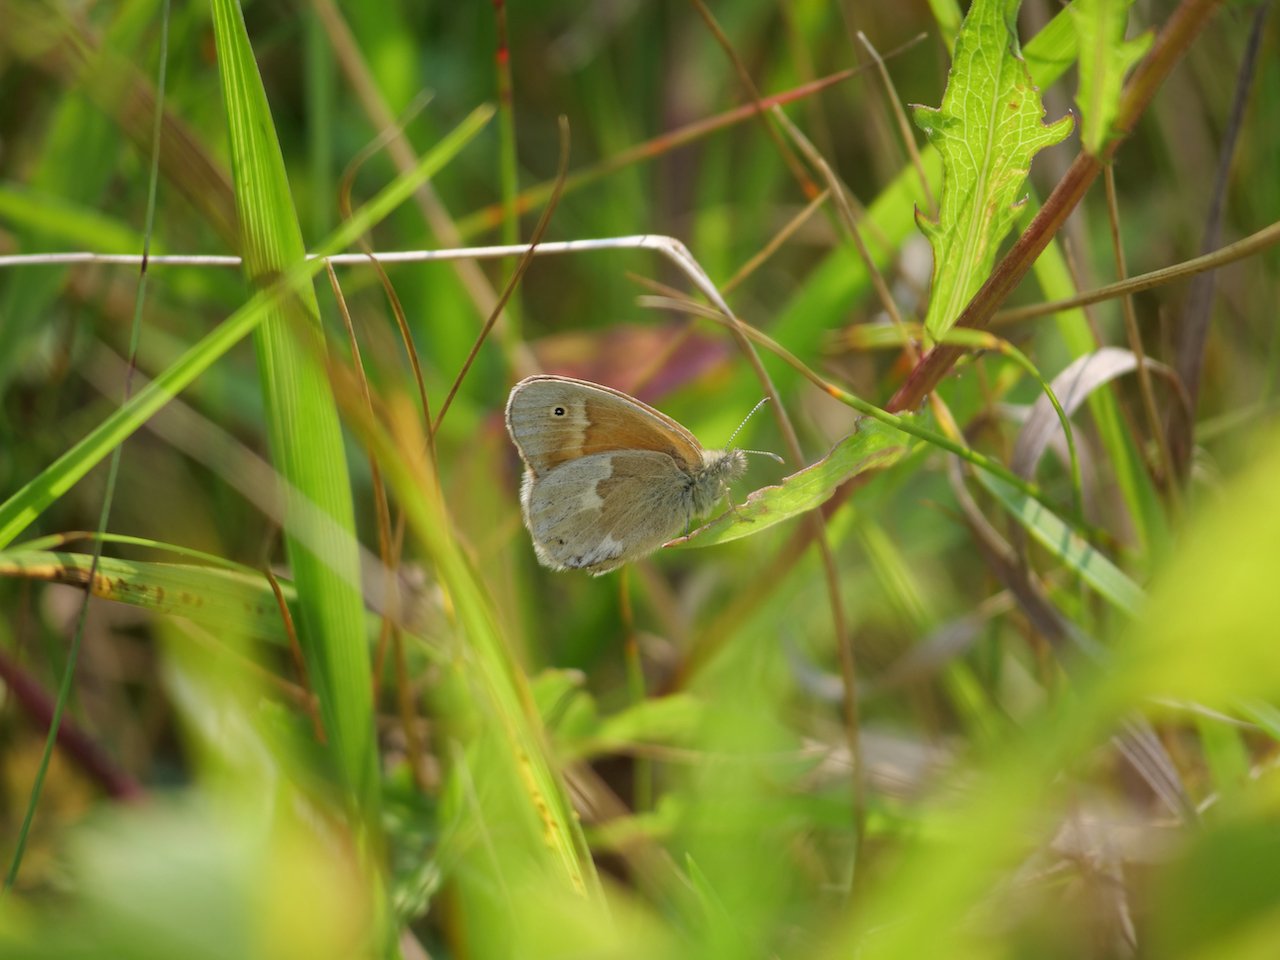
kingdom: Animalia
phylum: Arthropoda
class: Insecta
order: Lepidoptera
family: Nymphalidae
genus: Coenonympha
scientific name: Coenonympha tullia
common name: Large Heath
